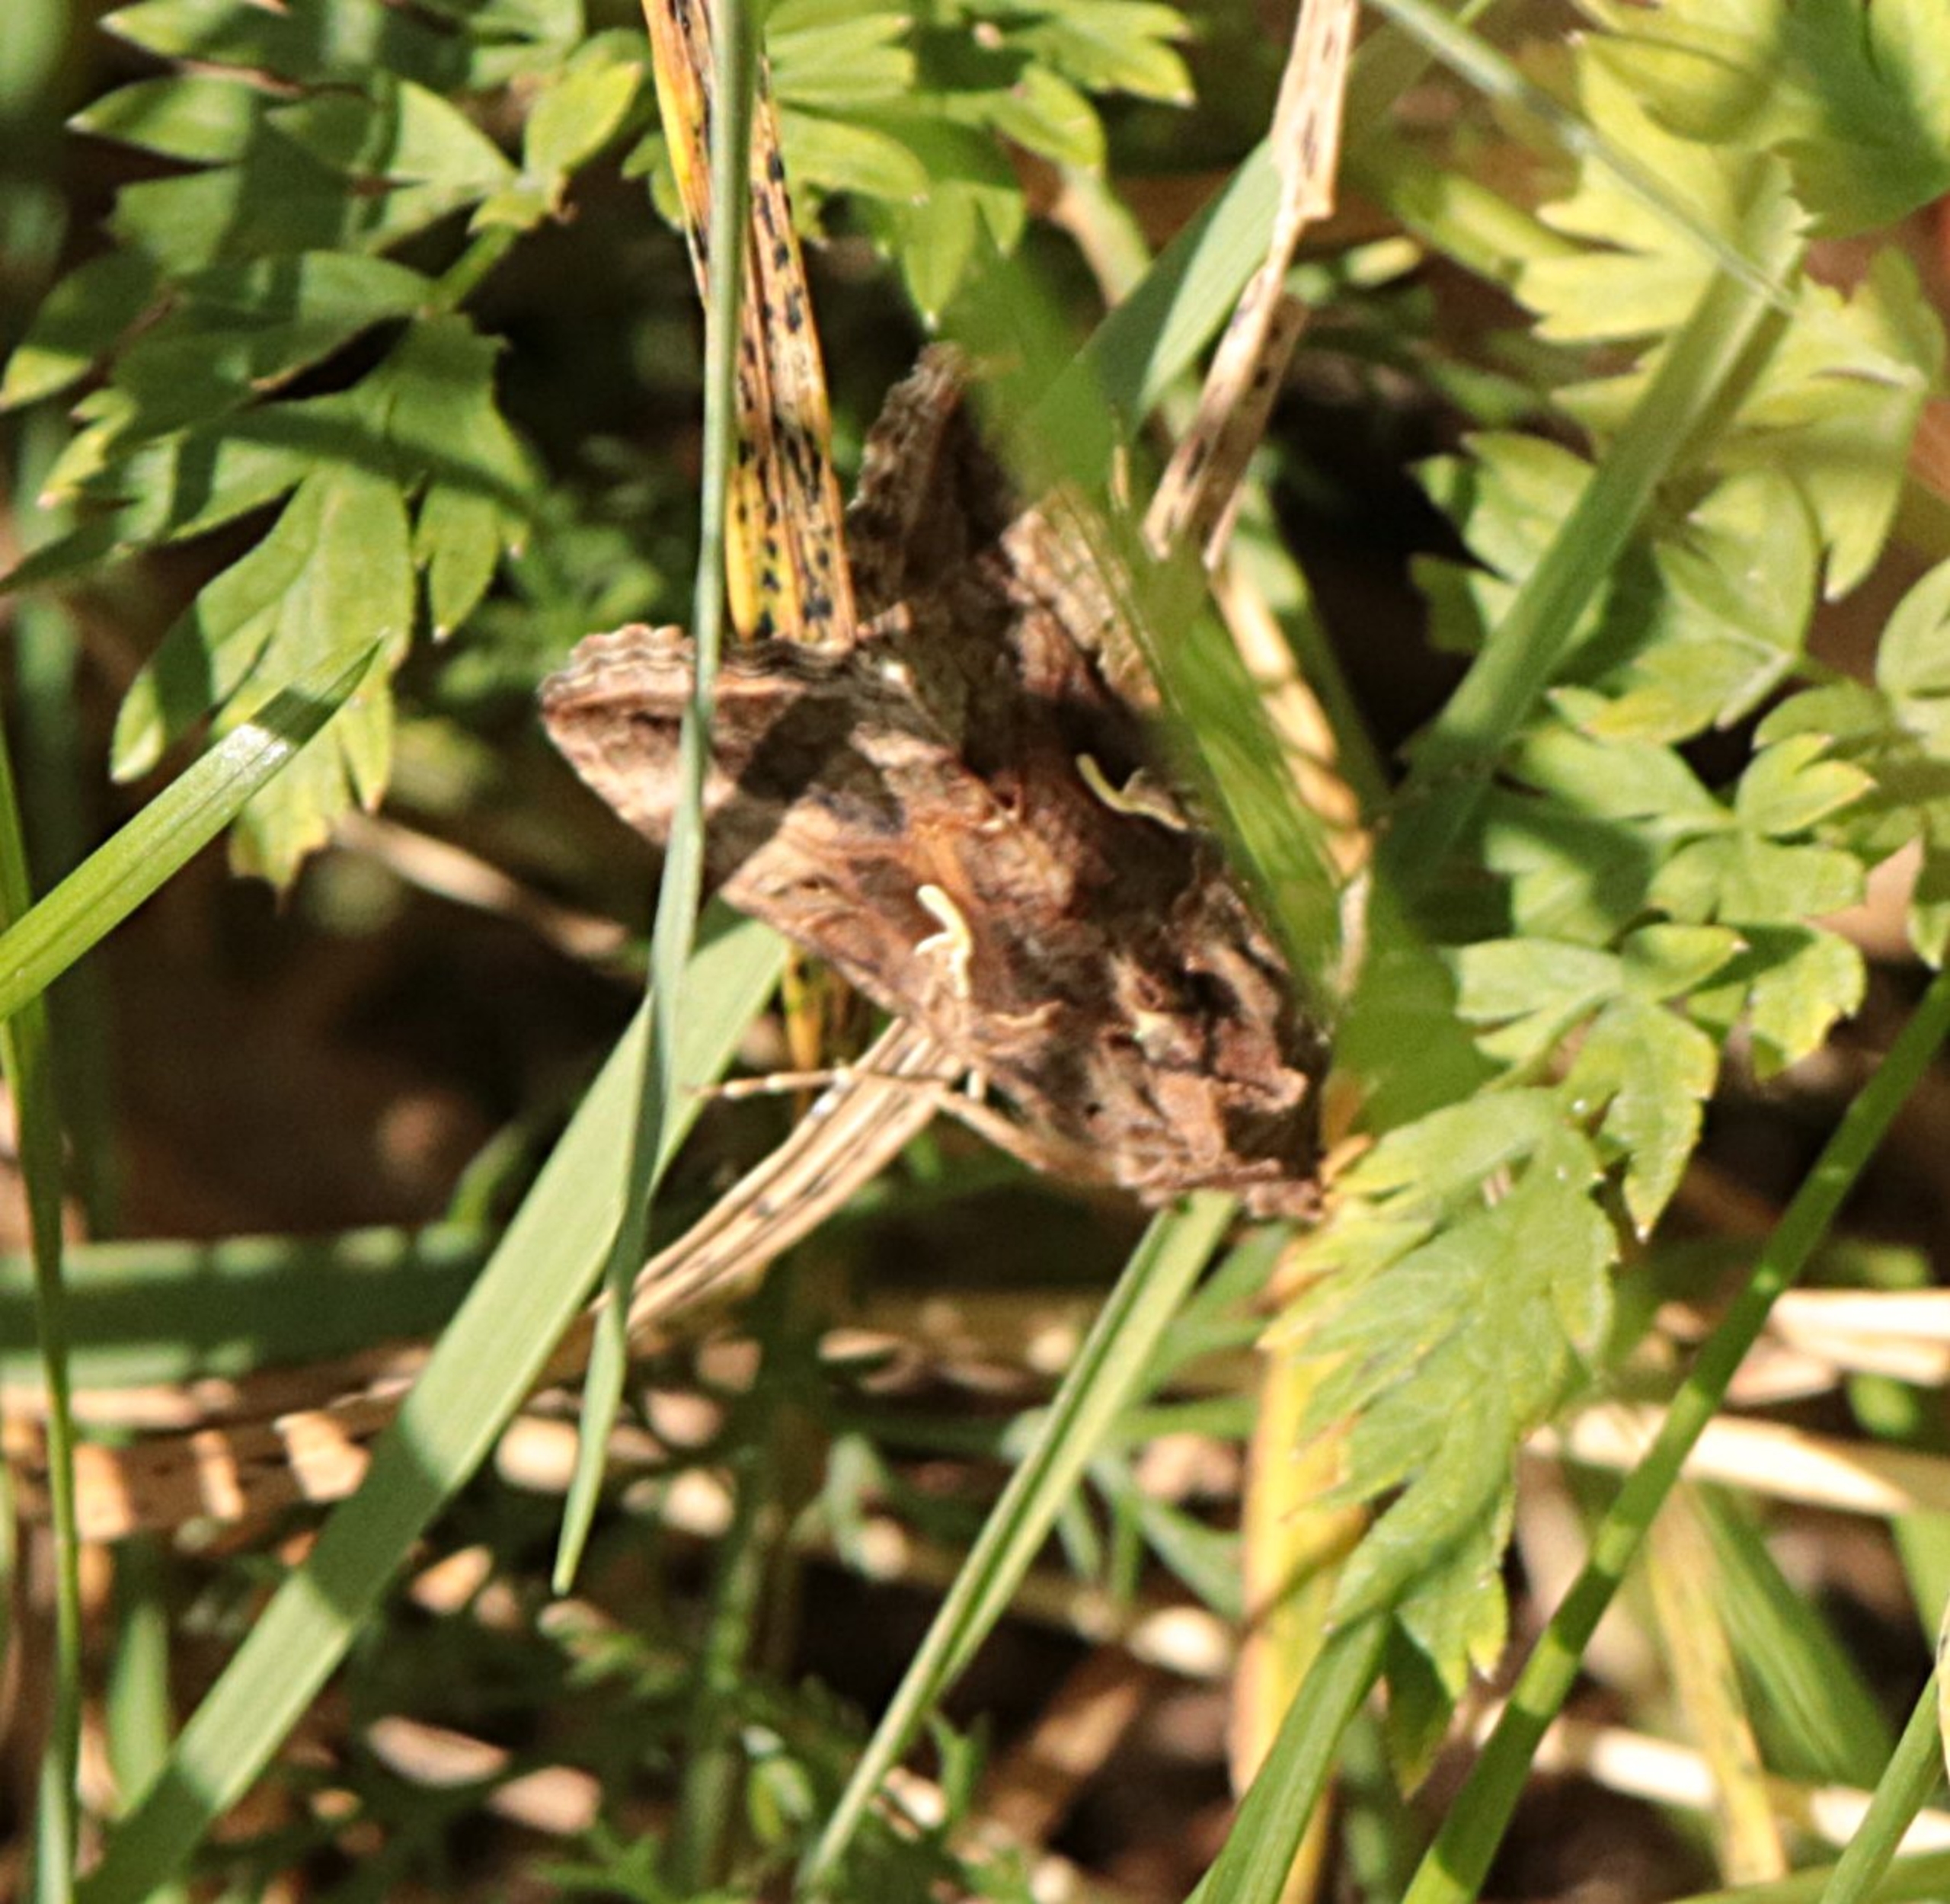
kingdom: Animalia
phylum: Arthropoda
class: Insecta
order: Lepidoptera
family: Noctuidae
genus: Autographa
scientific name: Autographa gamma
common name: Gammaugle
